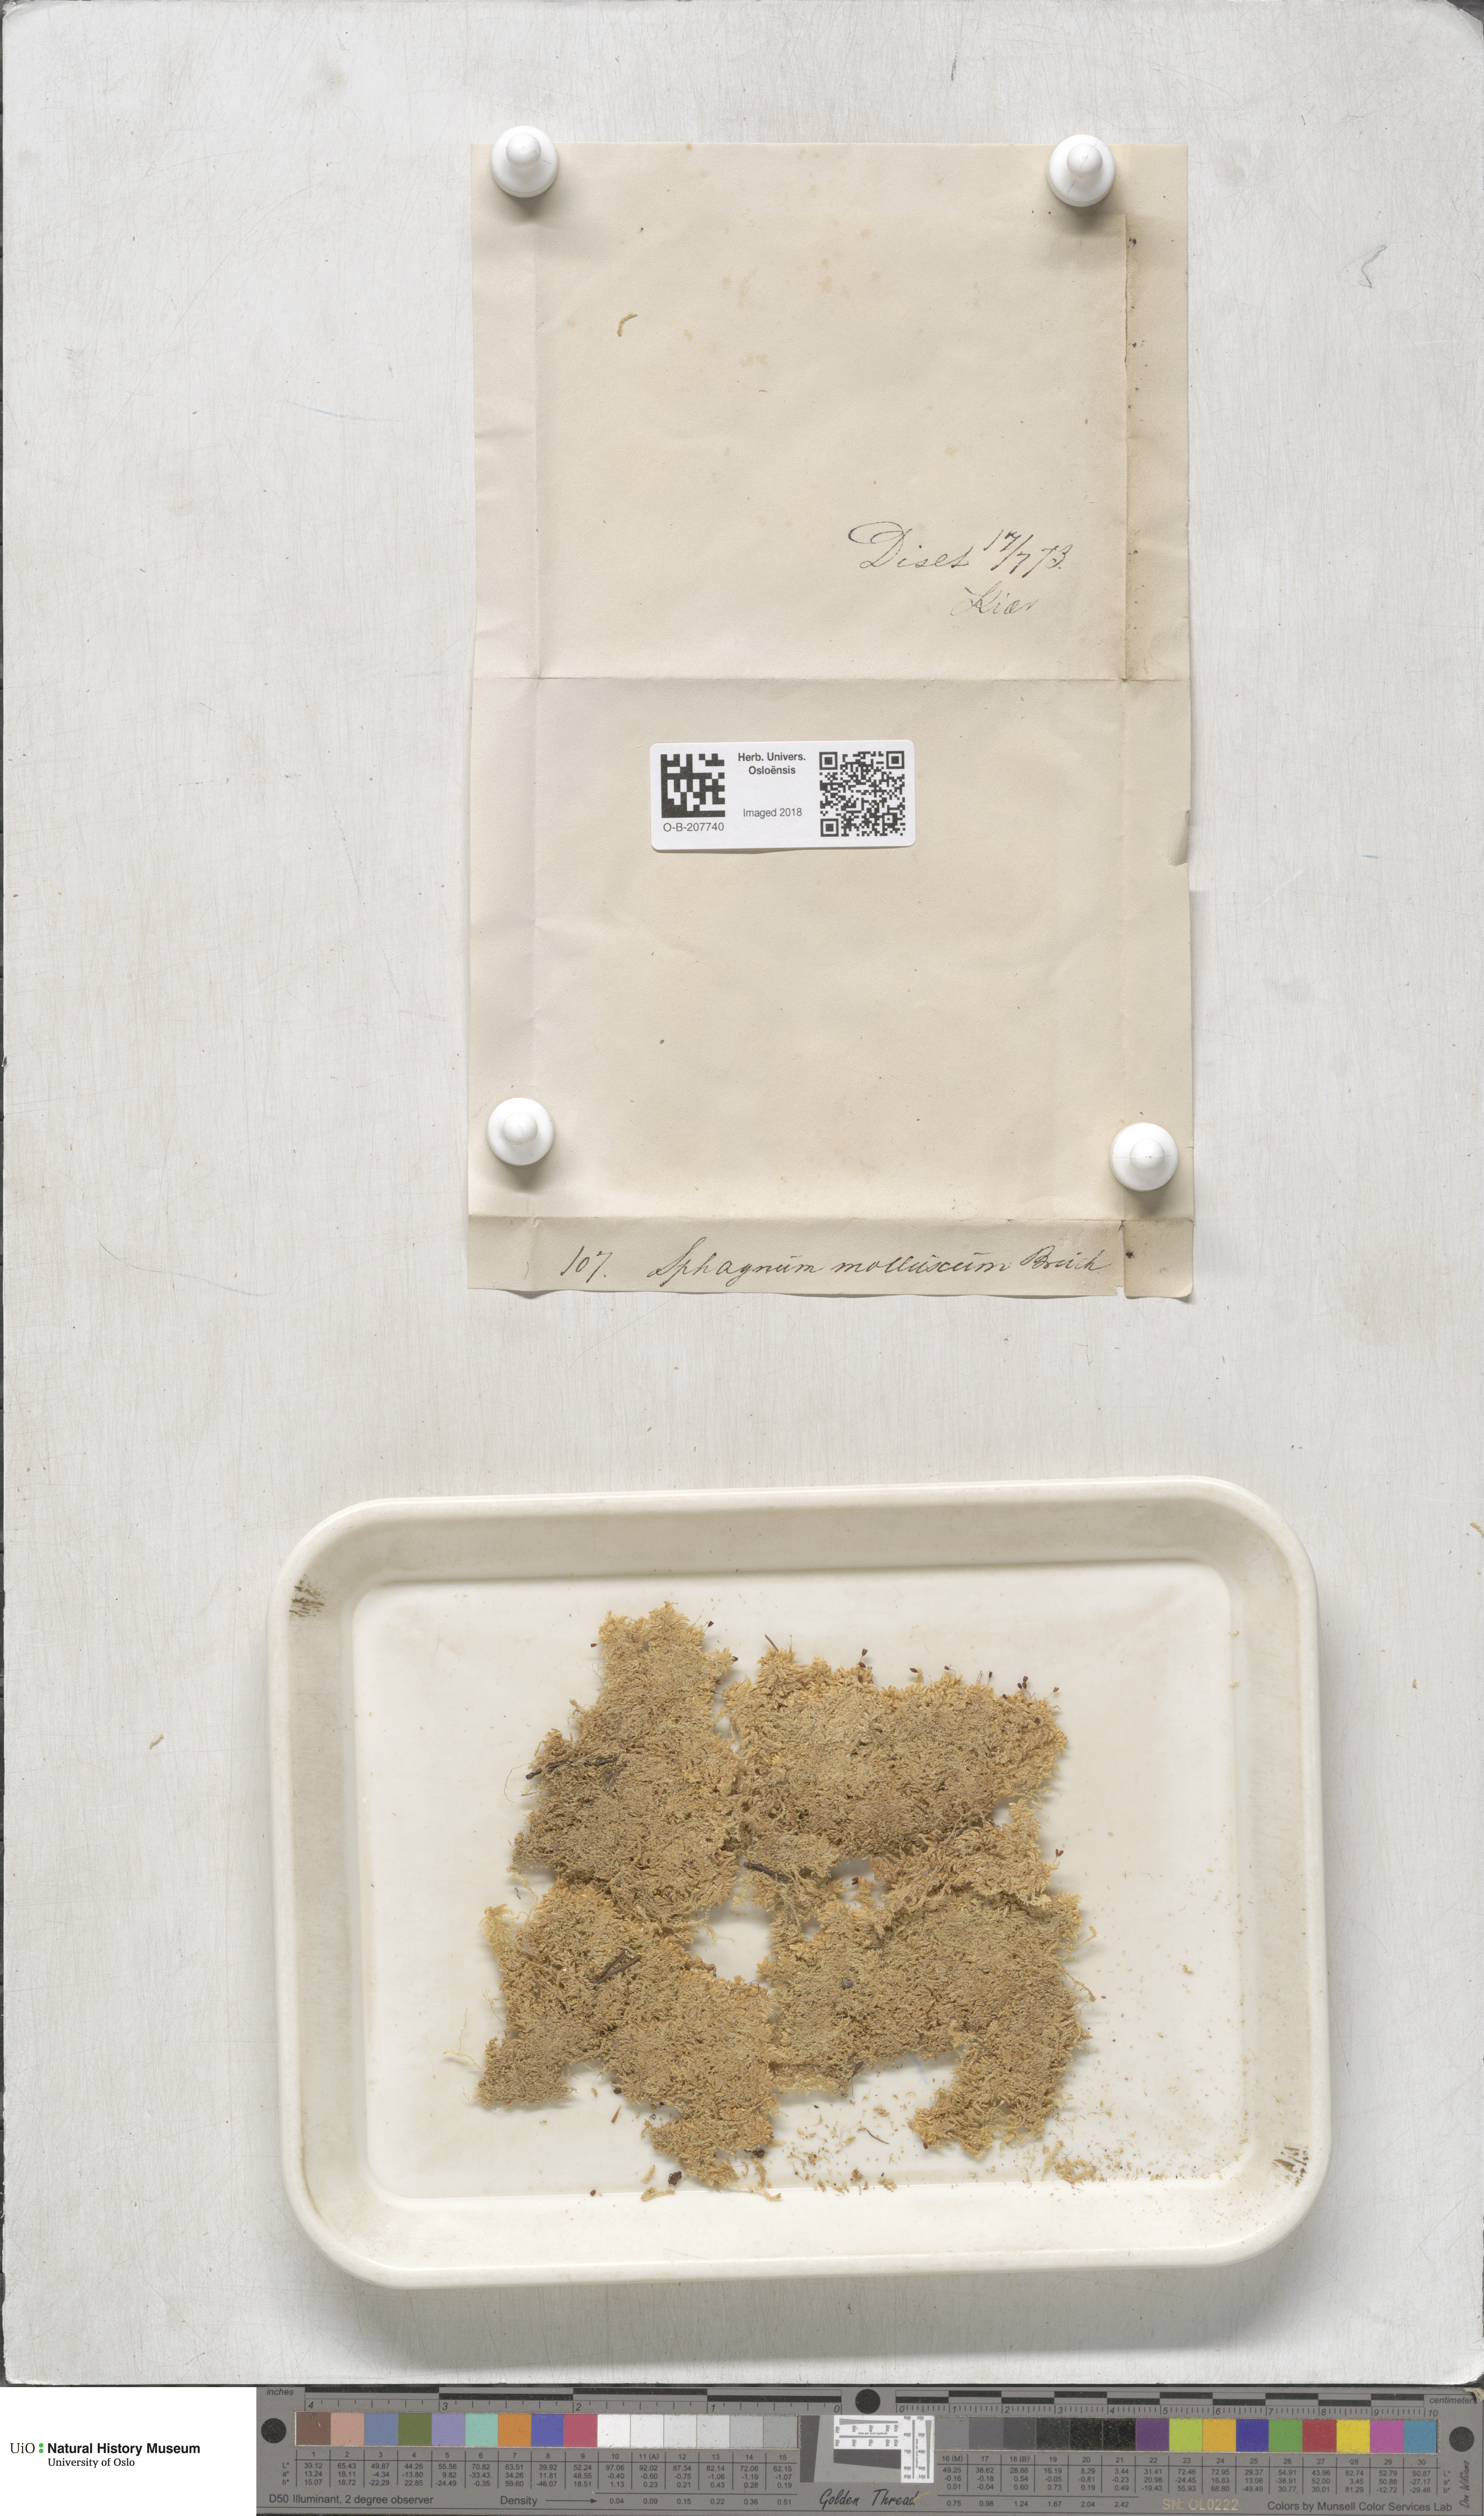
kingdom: Plantae
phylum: Bryophyta
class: Sphagnopsida
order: Sphagnales
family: Sphagnaceae
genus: Sphagnum
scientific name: Sphagnum tenellum
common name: Soft bog-moss
